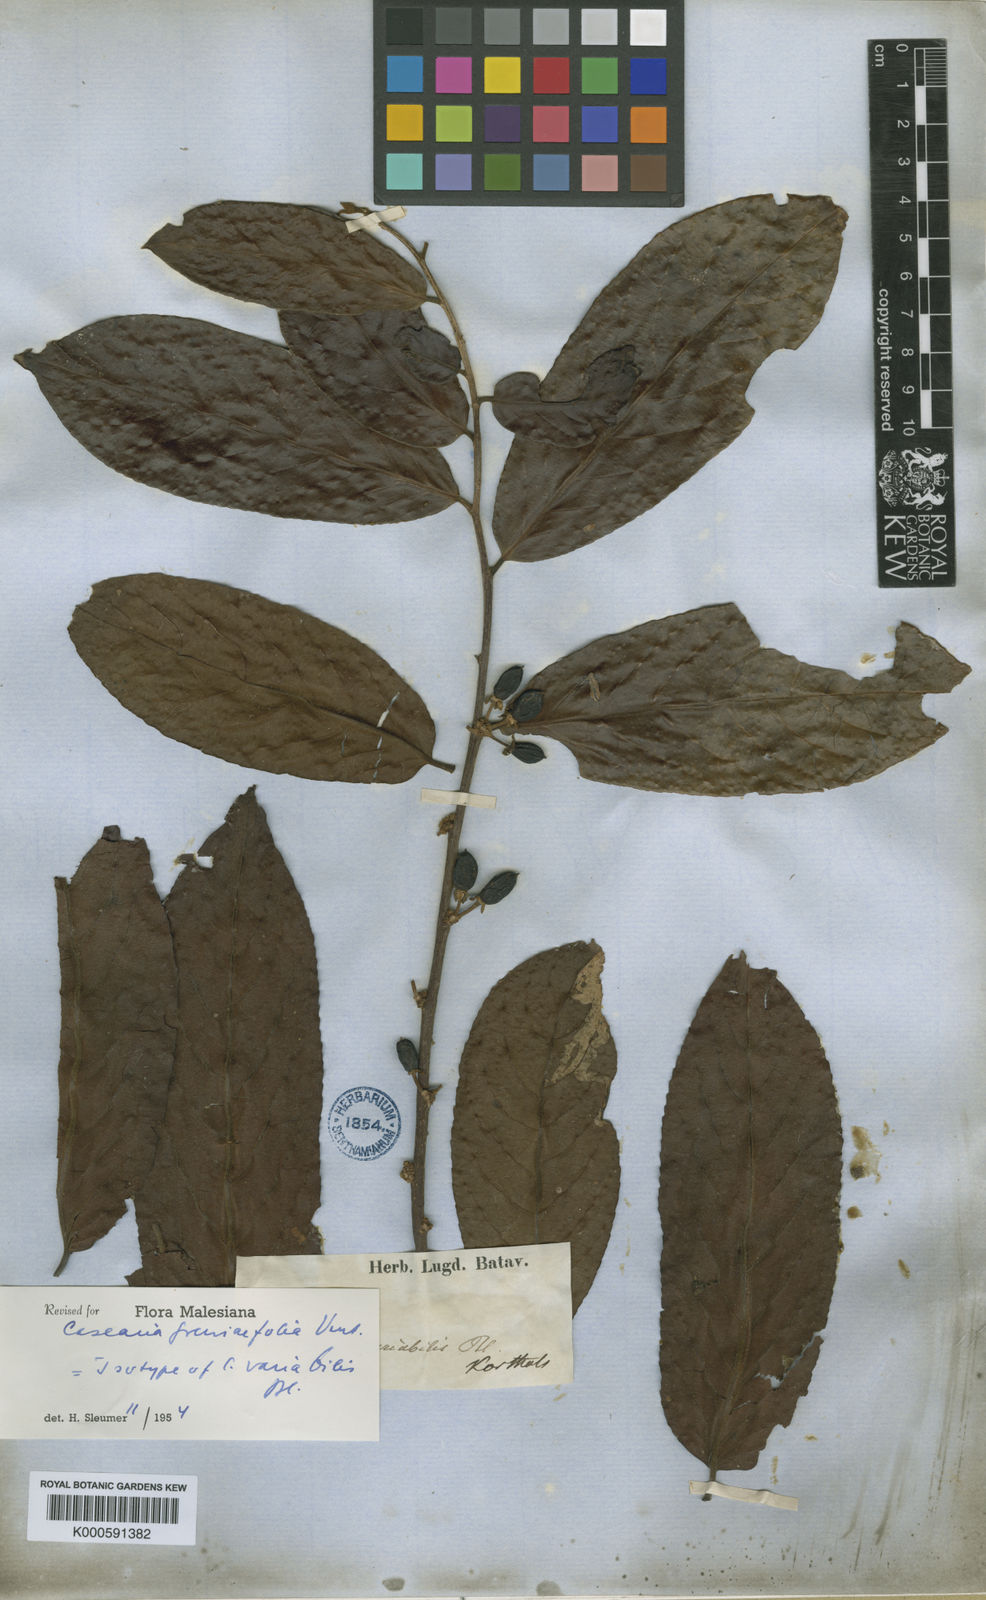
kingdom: Plantae
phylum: Tracheophyta
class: Magnoliopsida
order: Malpighiales
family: Salicaceae
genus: Casearia
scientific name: Casearia grewiifolia
